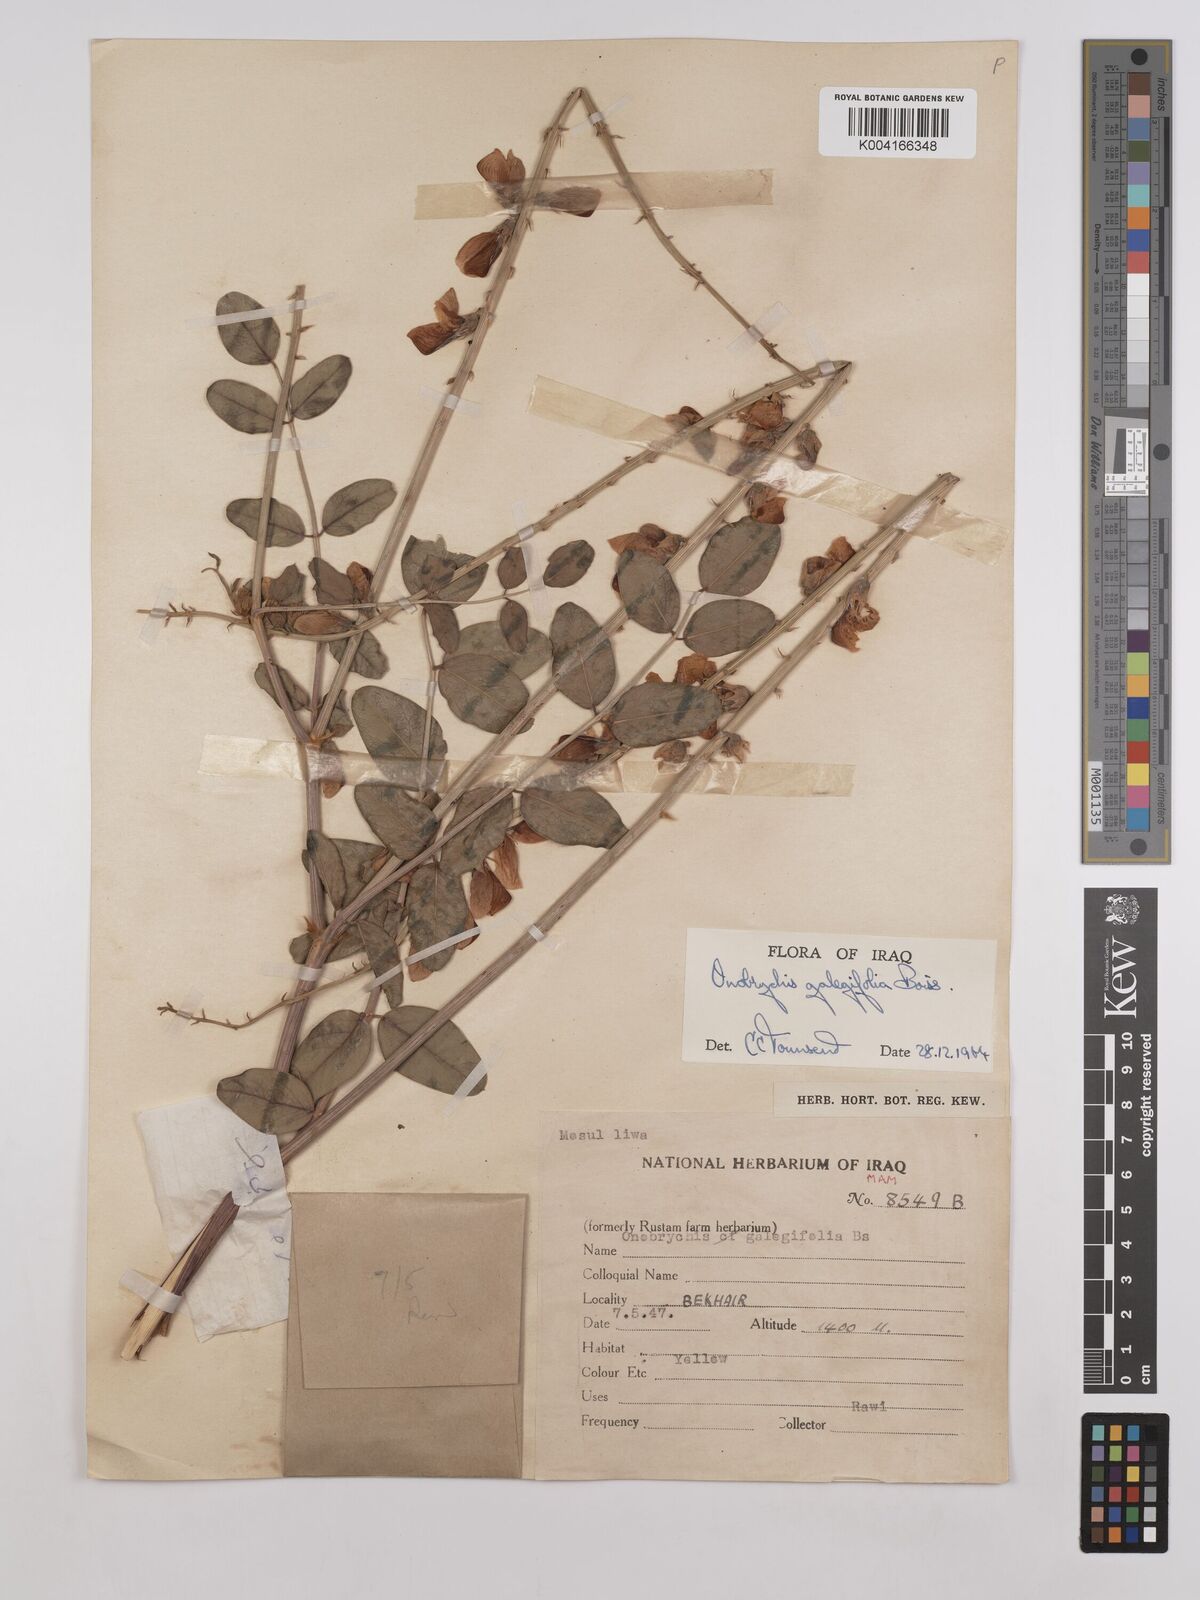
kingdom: Plantae
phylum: Tracheophyta
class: Magnoliopsida
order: Fabales
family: Fabaceae
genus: Onobrychis
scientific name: Onobrychis galegifolia
